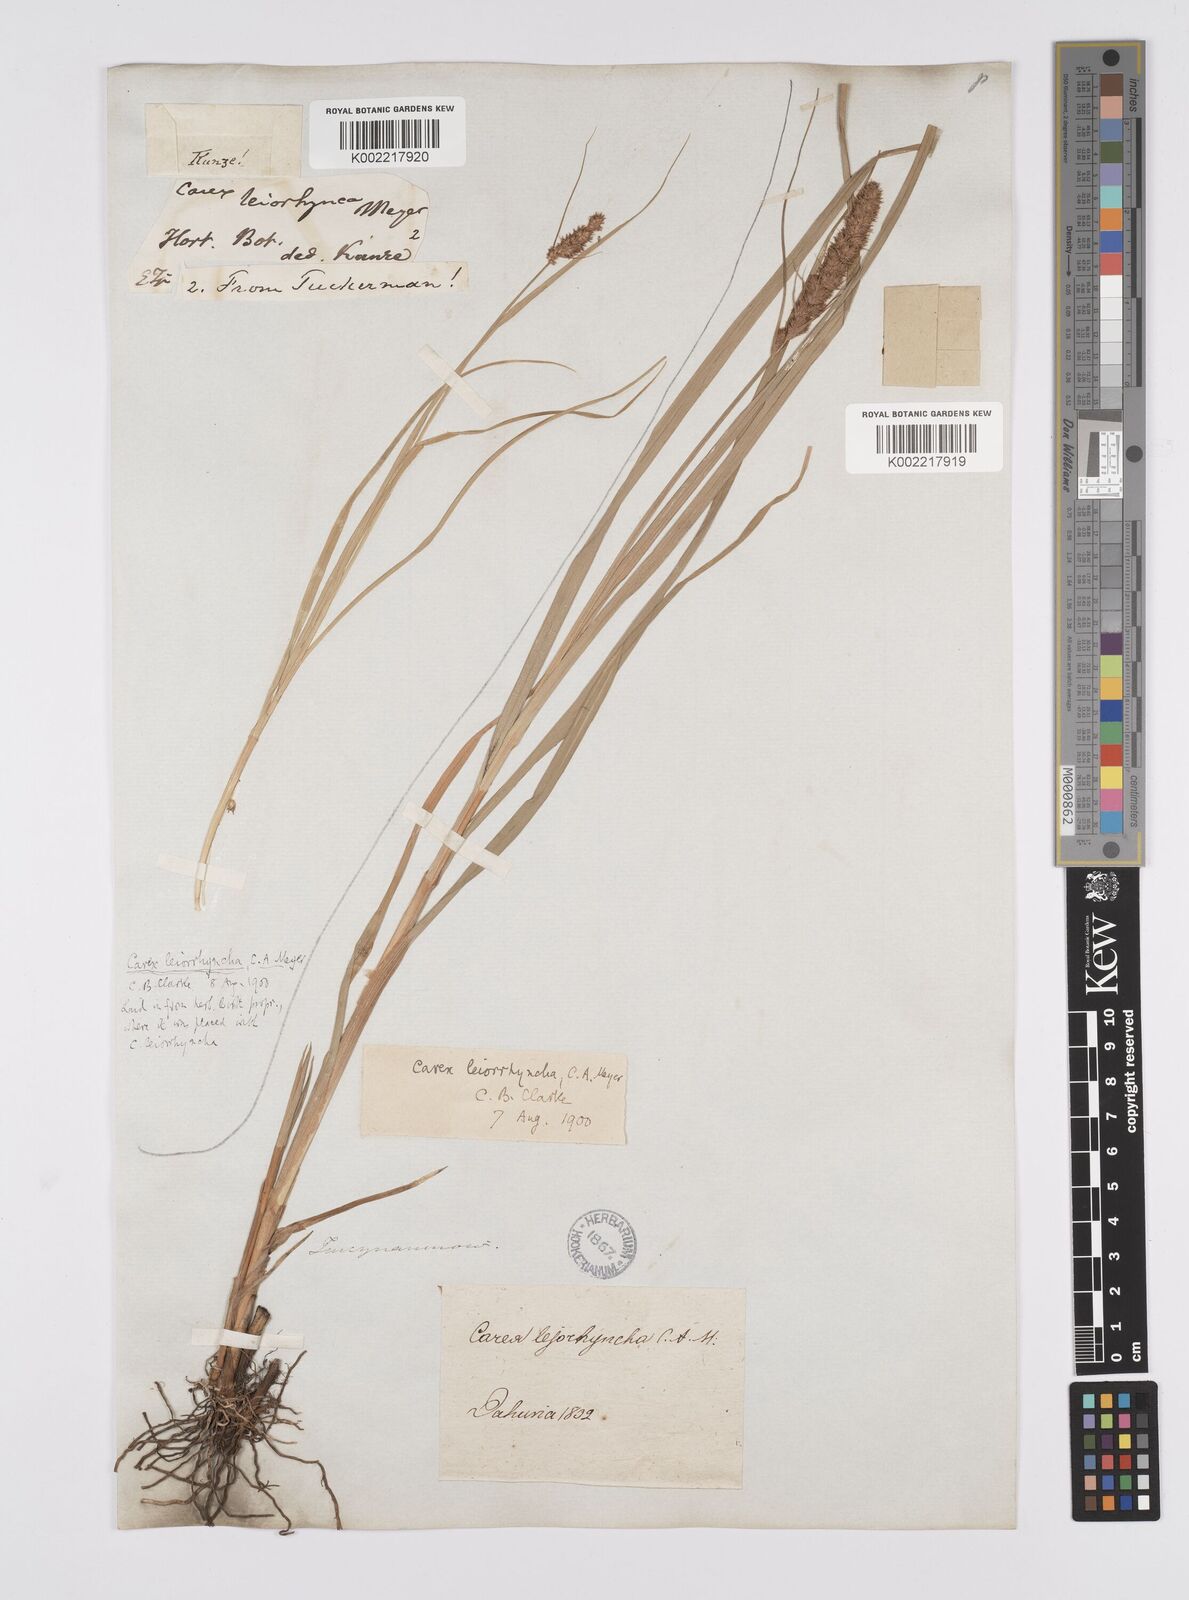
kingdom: Plantae
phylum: Tracheophyta
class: Liliopsida
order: Poales
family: Cyperaceae
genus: Carex
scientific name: Carex leiorhyncha
